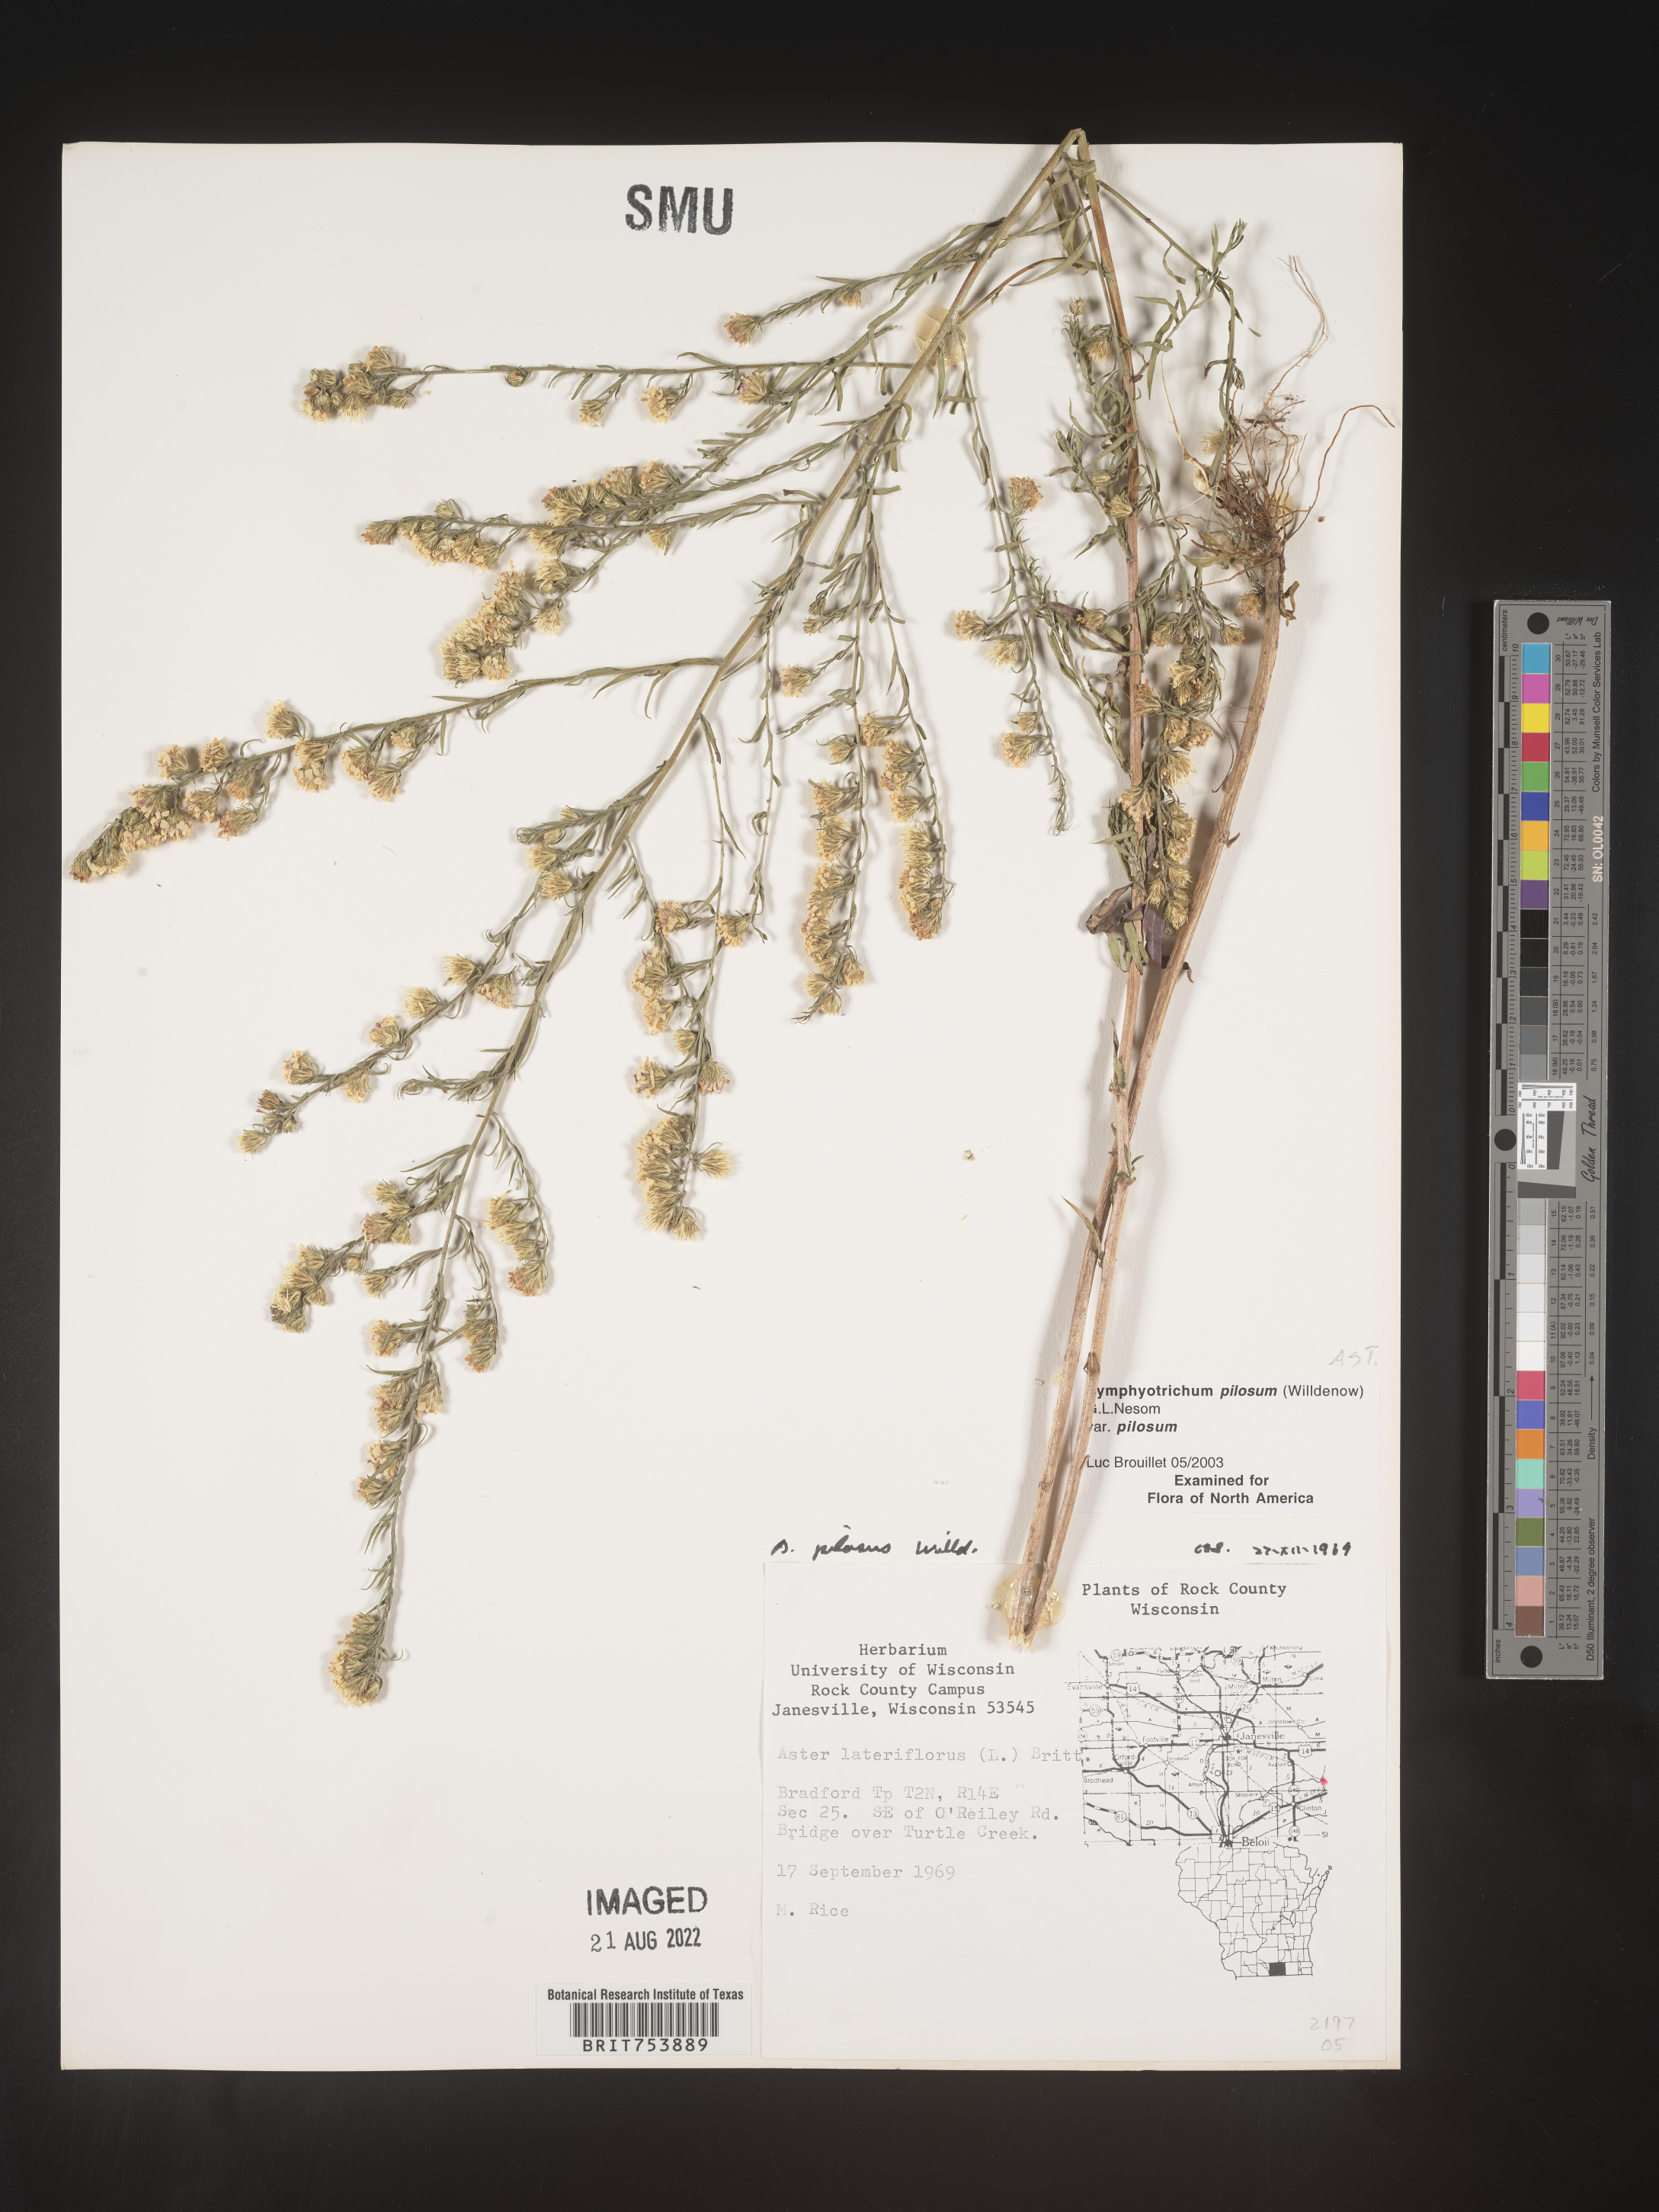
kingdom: Plantae
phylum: Tracheophyta
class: Magnoliopsida
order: Asterales
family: Asteraceae
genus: Symphyotrichum
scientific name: Symphyotrichum pilosum
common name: Awl aster
